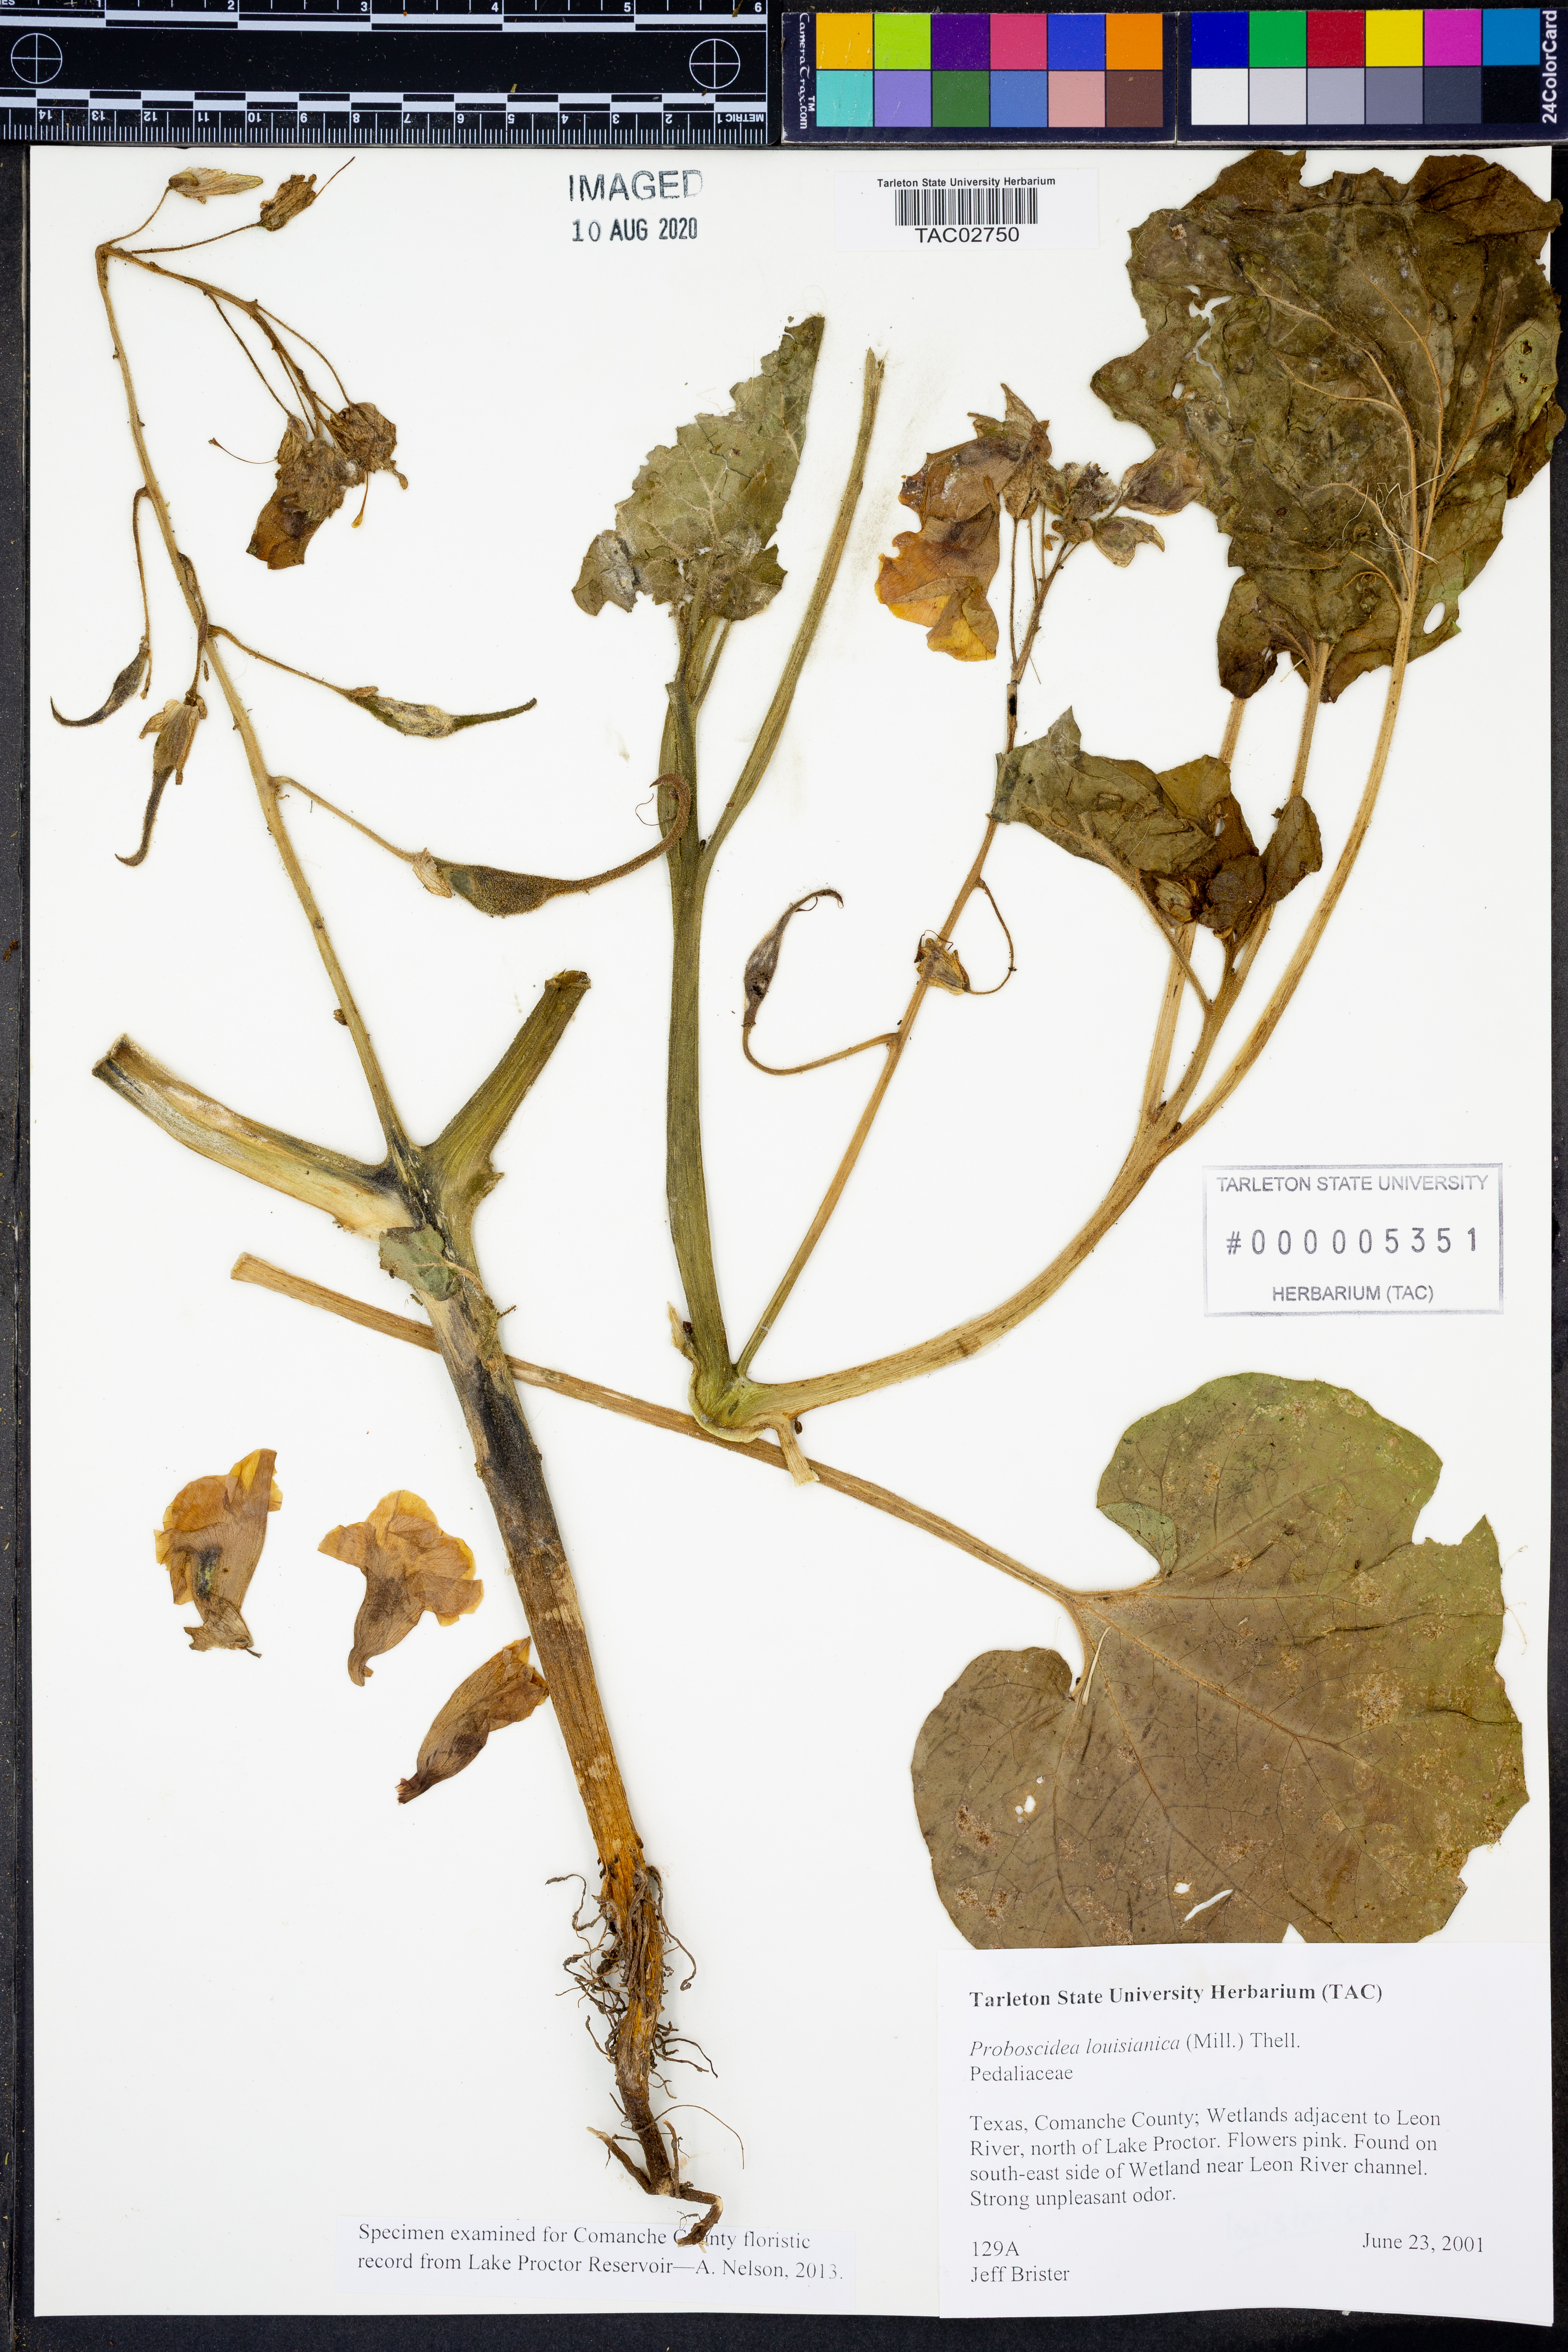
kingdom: Plantae
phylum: Tracheophyta
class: Magnoliopsida
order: Lamiales
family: Martyniaceae
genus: Proboscidea
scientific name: Proboscidea louisianica
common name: Elephant tusks
